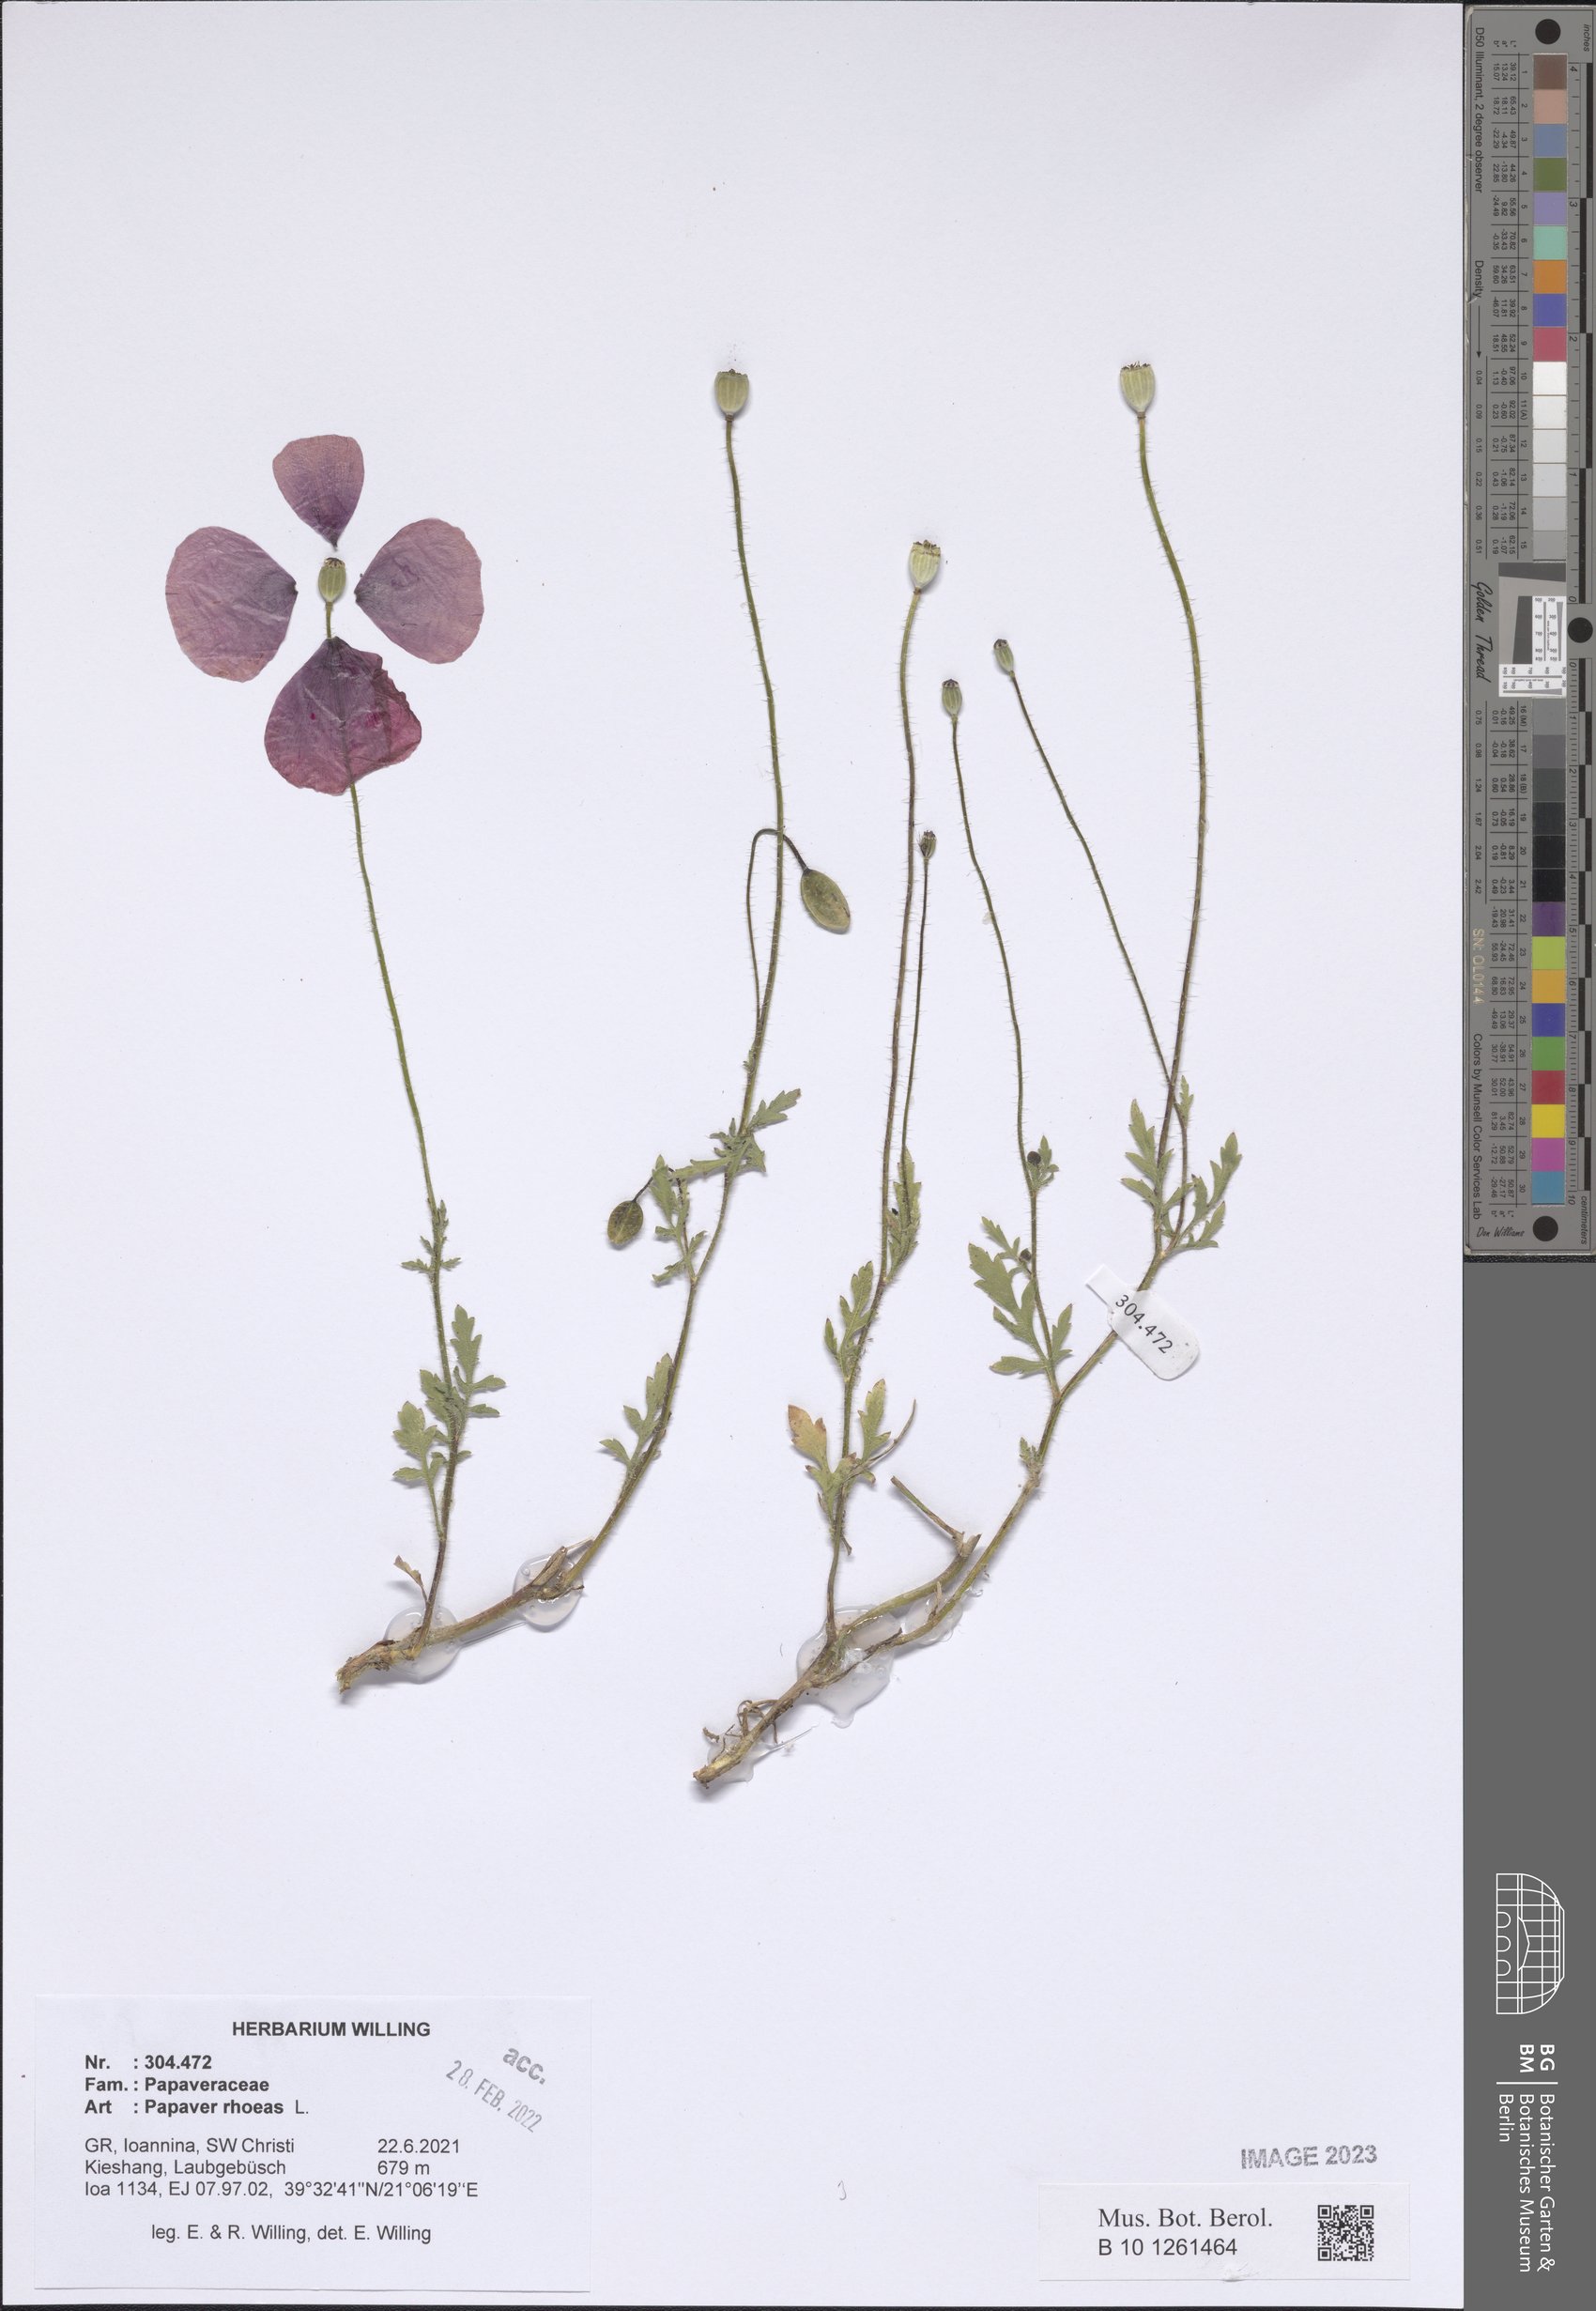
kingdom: Plantae
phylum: Tracheophyta
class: Magnoliopsida
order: Ranunculales
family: Papaveraceae
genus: Papaver
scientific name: Papaver rhoeas
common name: Corn poppy
